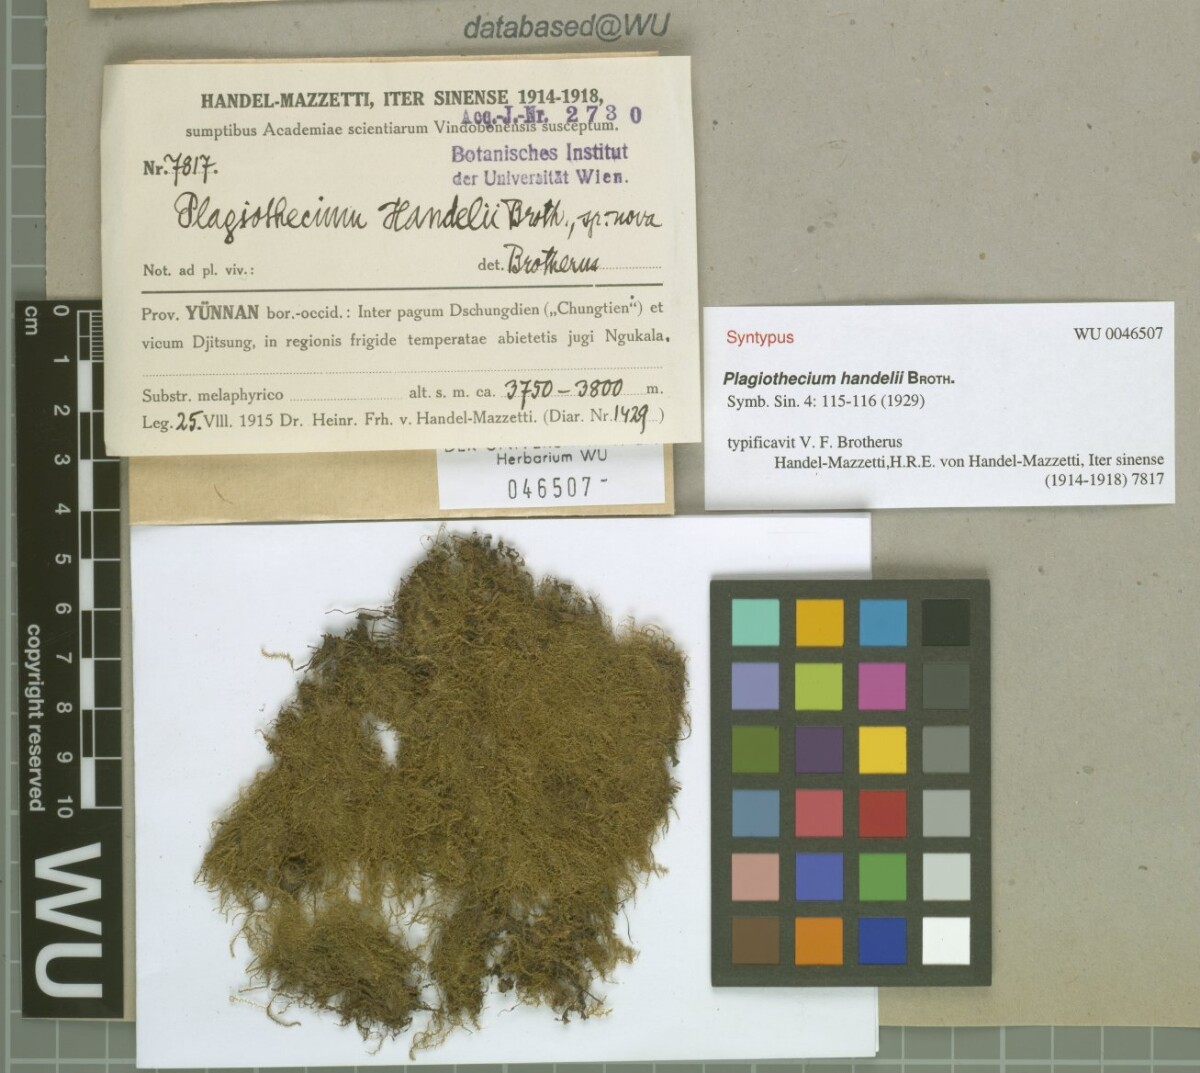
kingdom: Plantae
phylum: Bryophyta
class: Bryopsida
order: Hypnales
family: Plagiotheciaceae
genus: Ortholimnobium
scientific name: Ortholimnobium handelii
